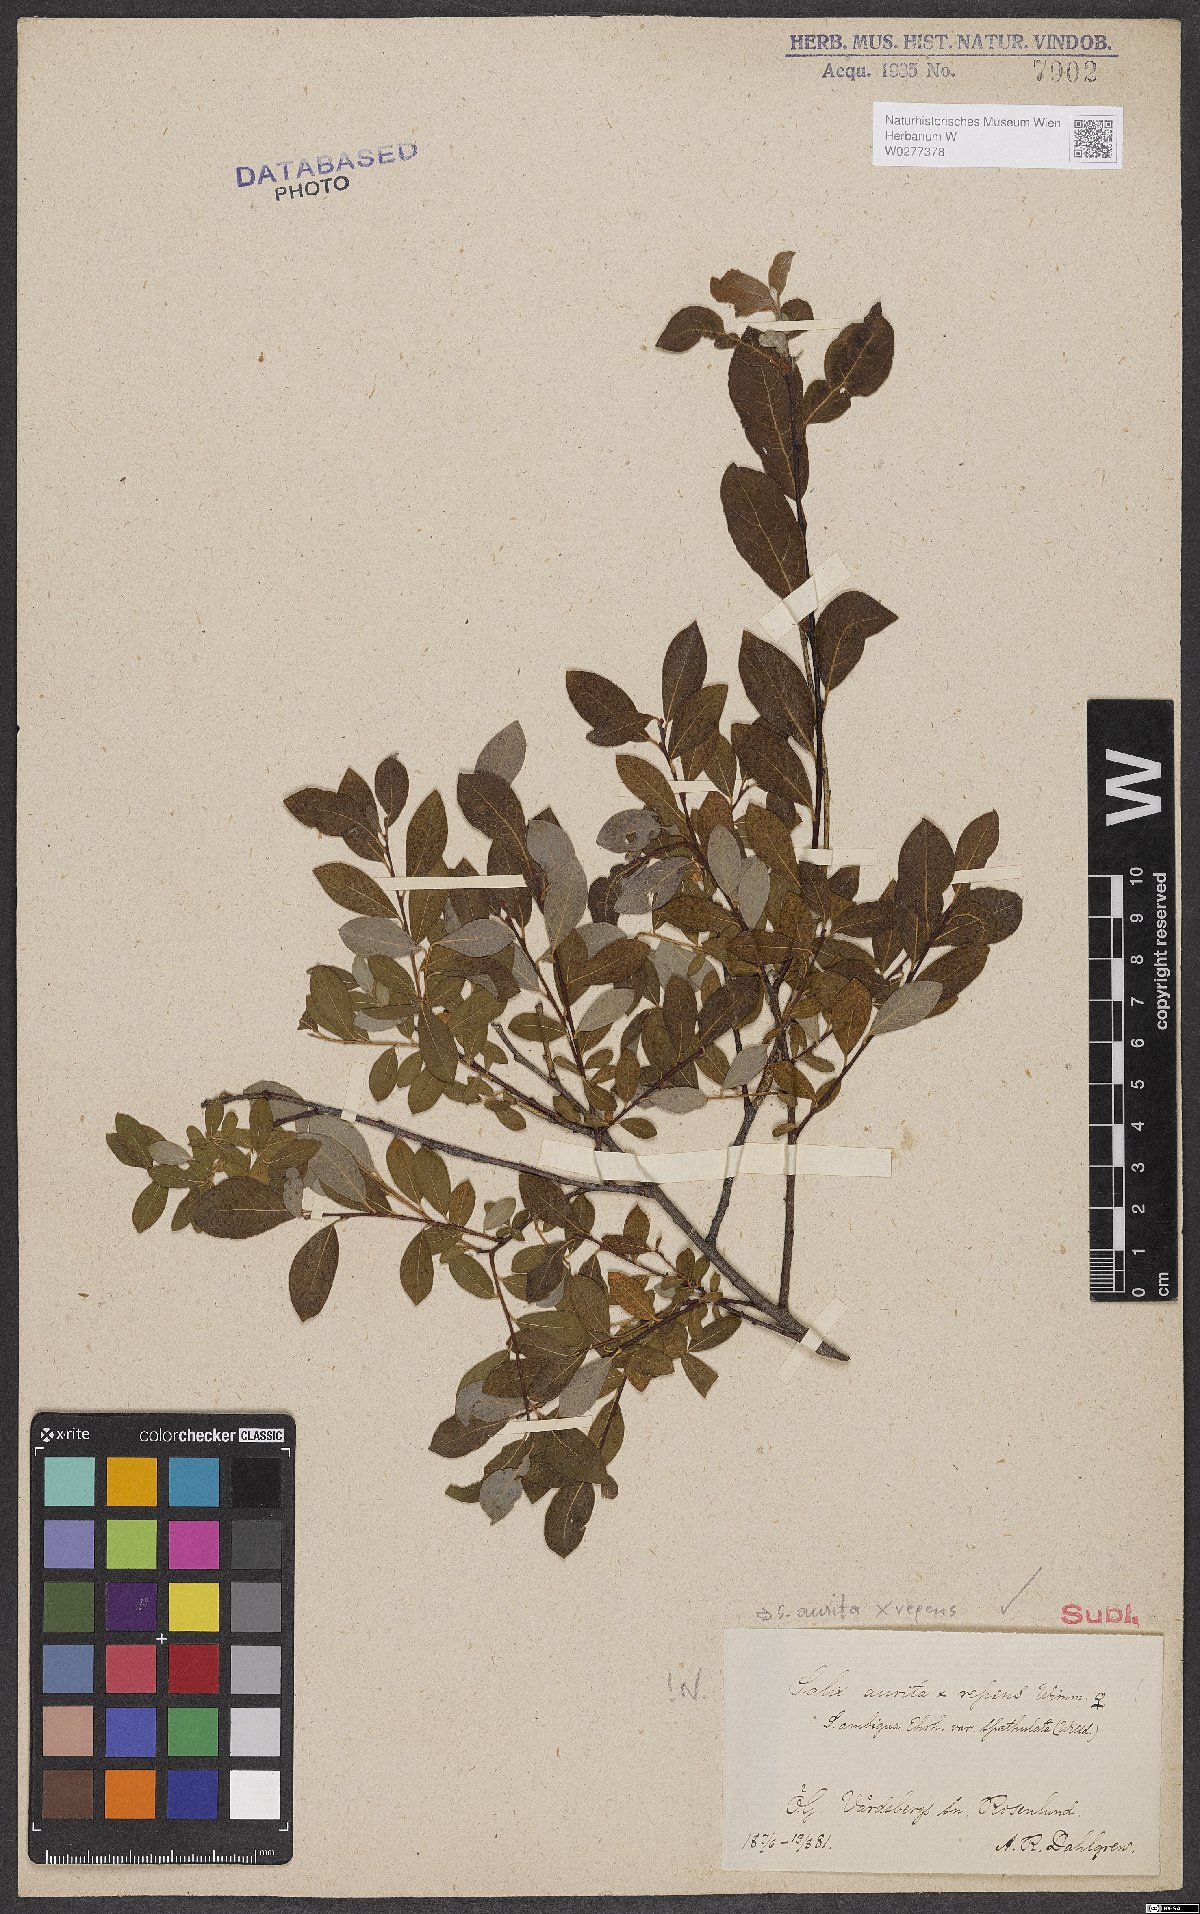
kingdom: Plantae
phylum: Tracheophyta
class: Magnoliopsida
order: Malpighiales
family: Salicaceae
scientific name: Salicaceae
